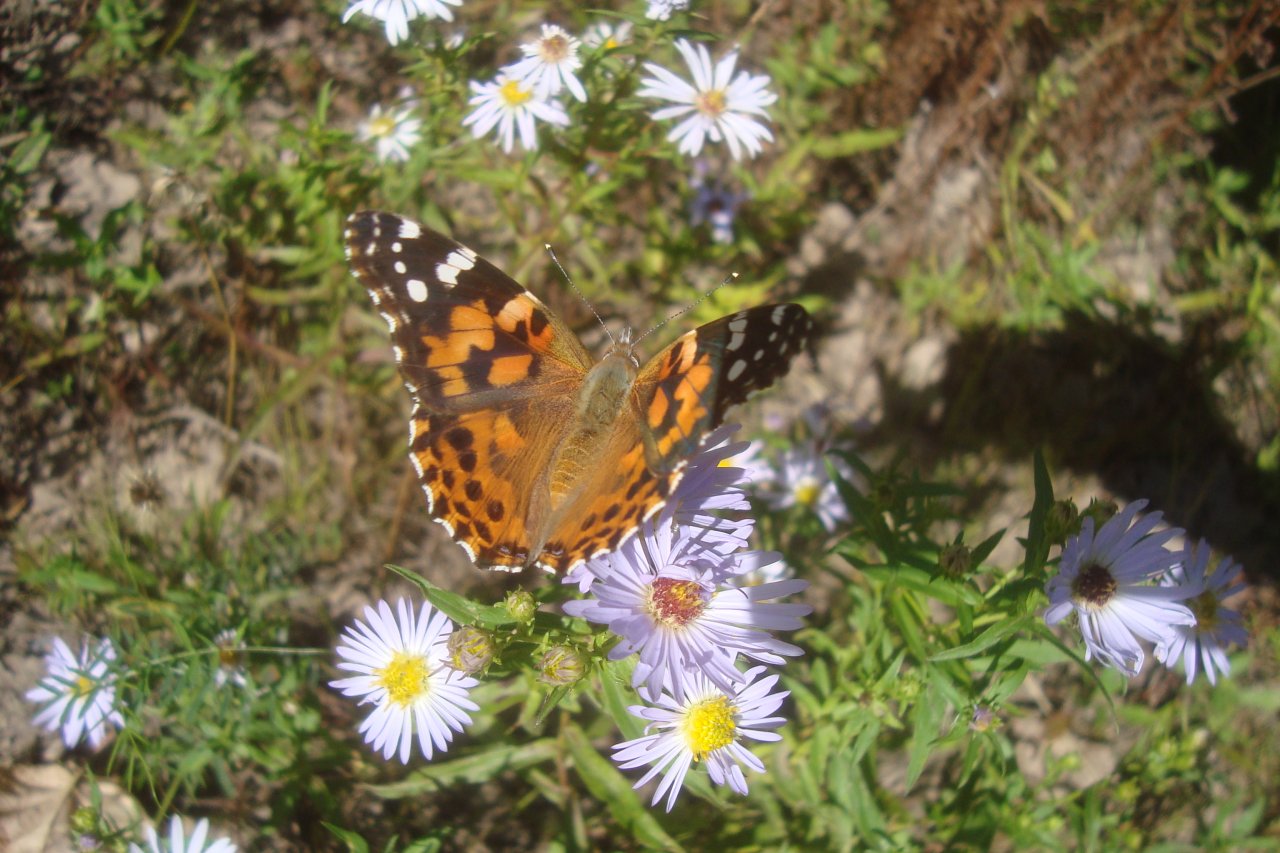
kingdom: Animalia
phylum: Arthropoda
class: Insecta
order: Lepidoptera
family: Nymphalidae
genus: Vanessa
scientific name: Vanessa cardui
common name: Painted Lady
